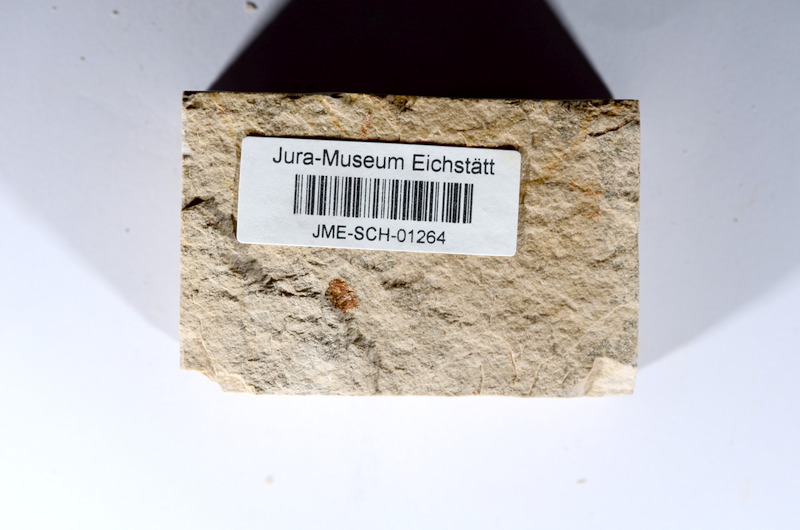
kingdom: Animalia
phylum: Chordata
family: Ascalaboidae
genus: Tharsis
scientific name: Tharsis dubius
